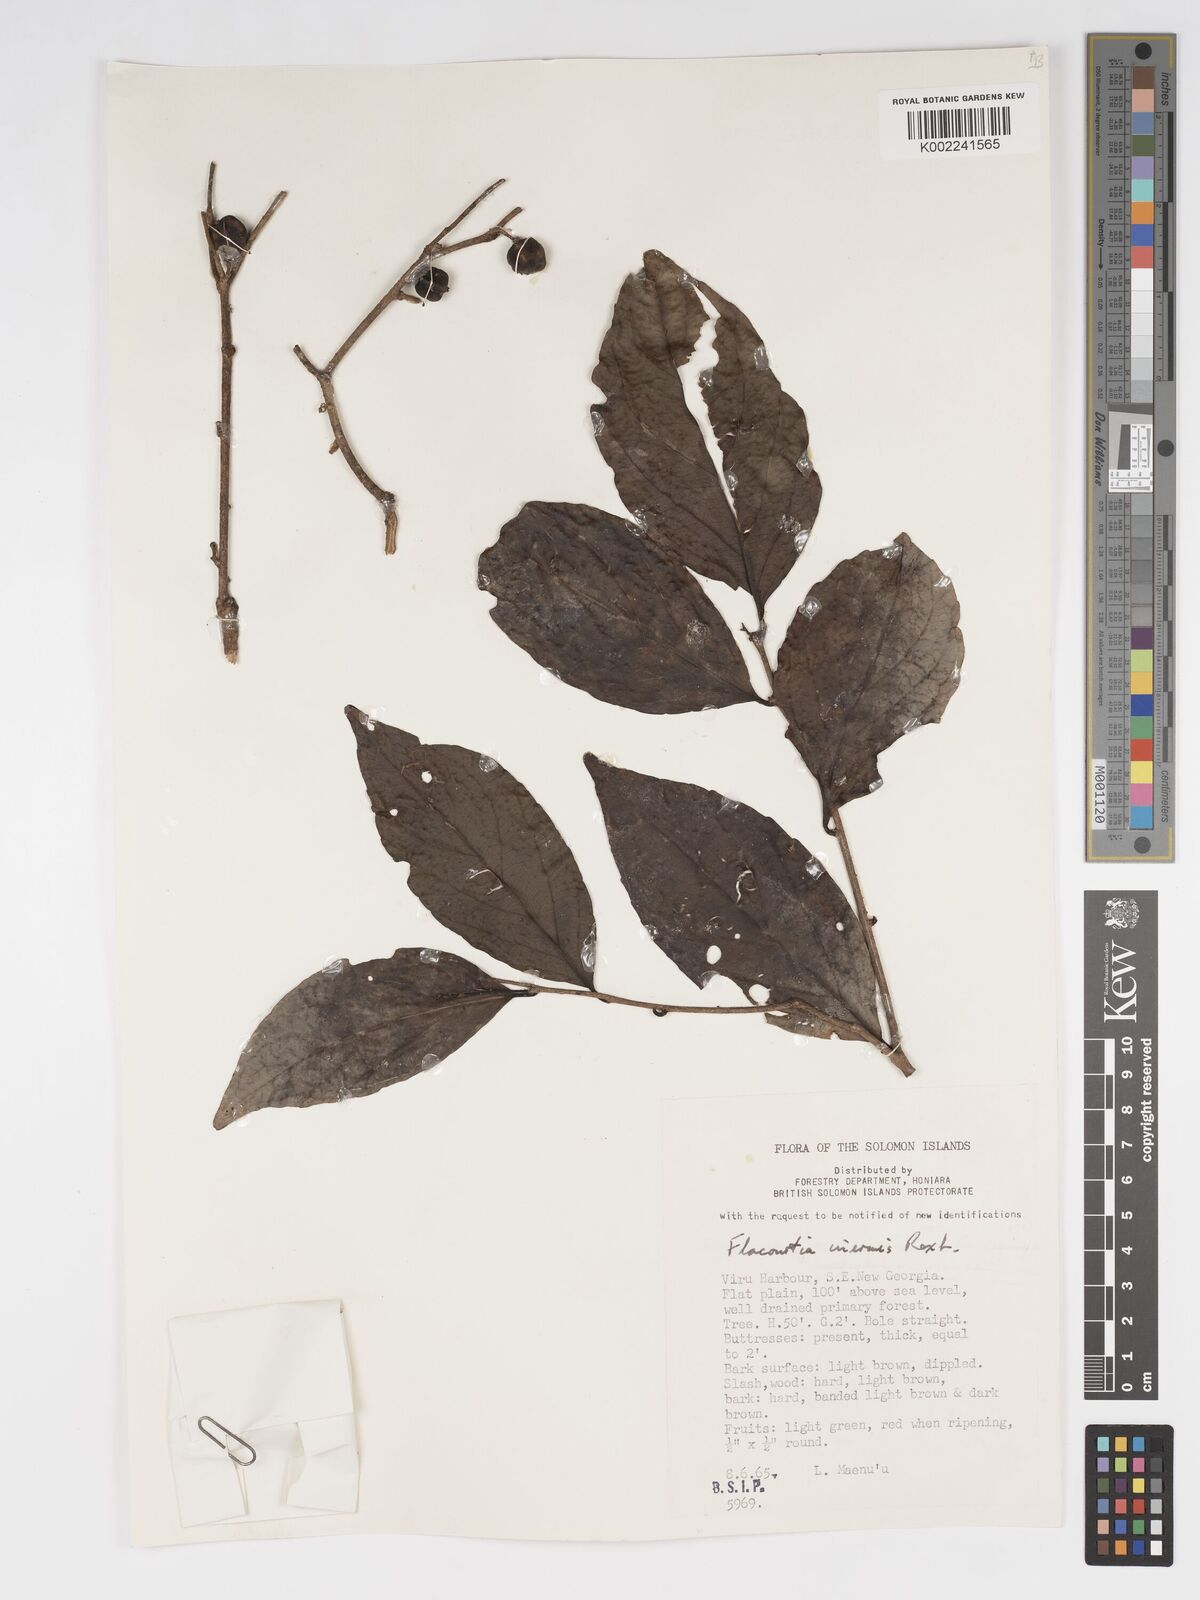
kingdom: Plantae
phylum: Tracheophyta
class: Magnoliopsida
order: Malpighiales
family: Salicaceae
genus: Flacourtia
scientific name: Flacourtia inermis
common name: Plum-of-martinique
